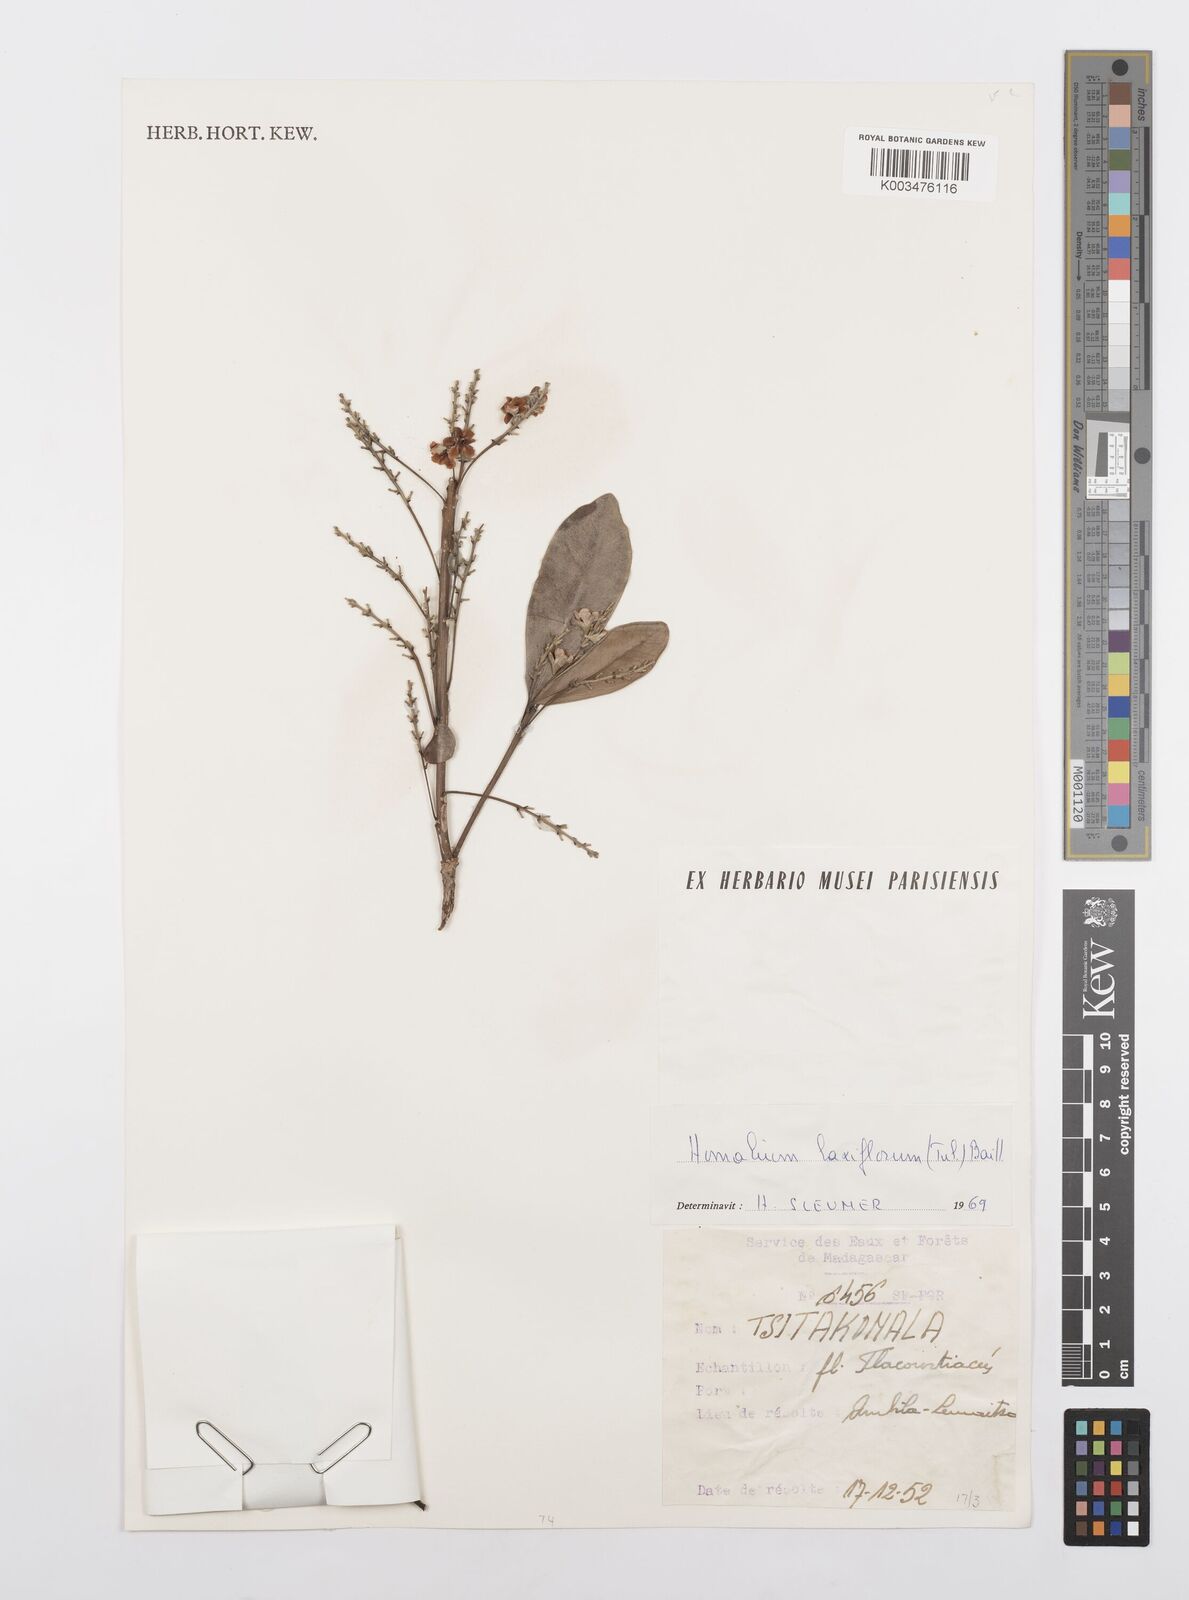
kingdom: Plantae
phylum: Tracheophyta
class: Magnoliopsida
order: Malpighiales
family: Salicaceae
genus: Homalium
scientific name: Homalium laxiflorum
